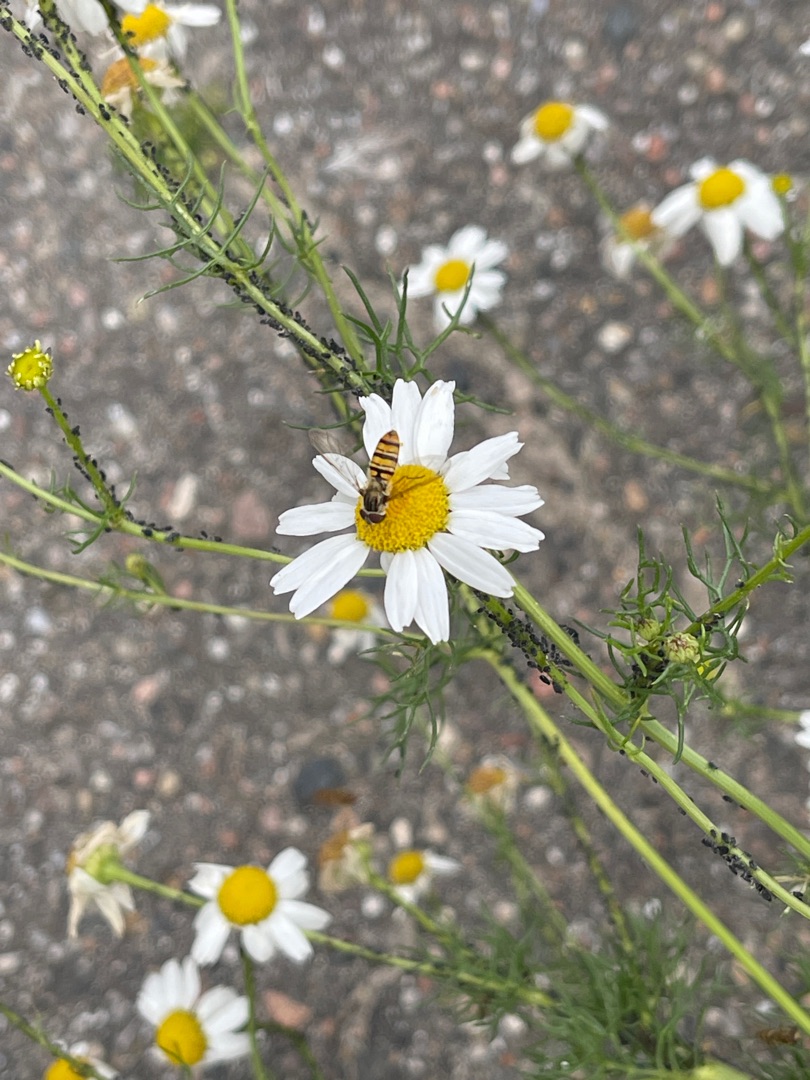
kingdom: Animalia
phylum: Arthropoda
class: Insecta
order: Diptera
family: Syrphidae
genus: Episyrphus
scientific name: Episyrphus balteatus
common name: Dobbeltbåndet svirreflue
